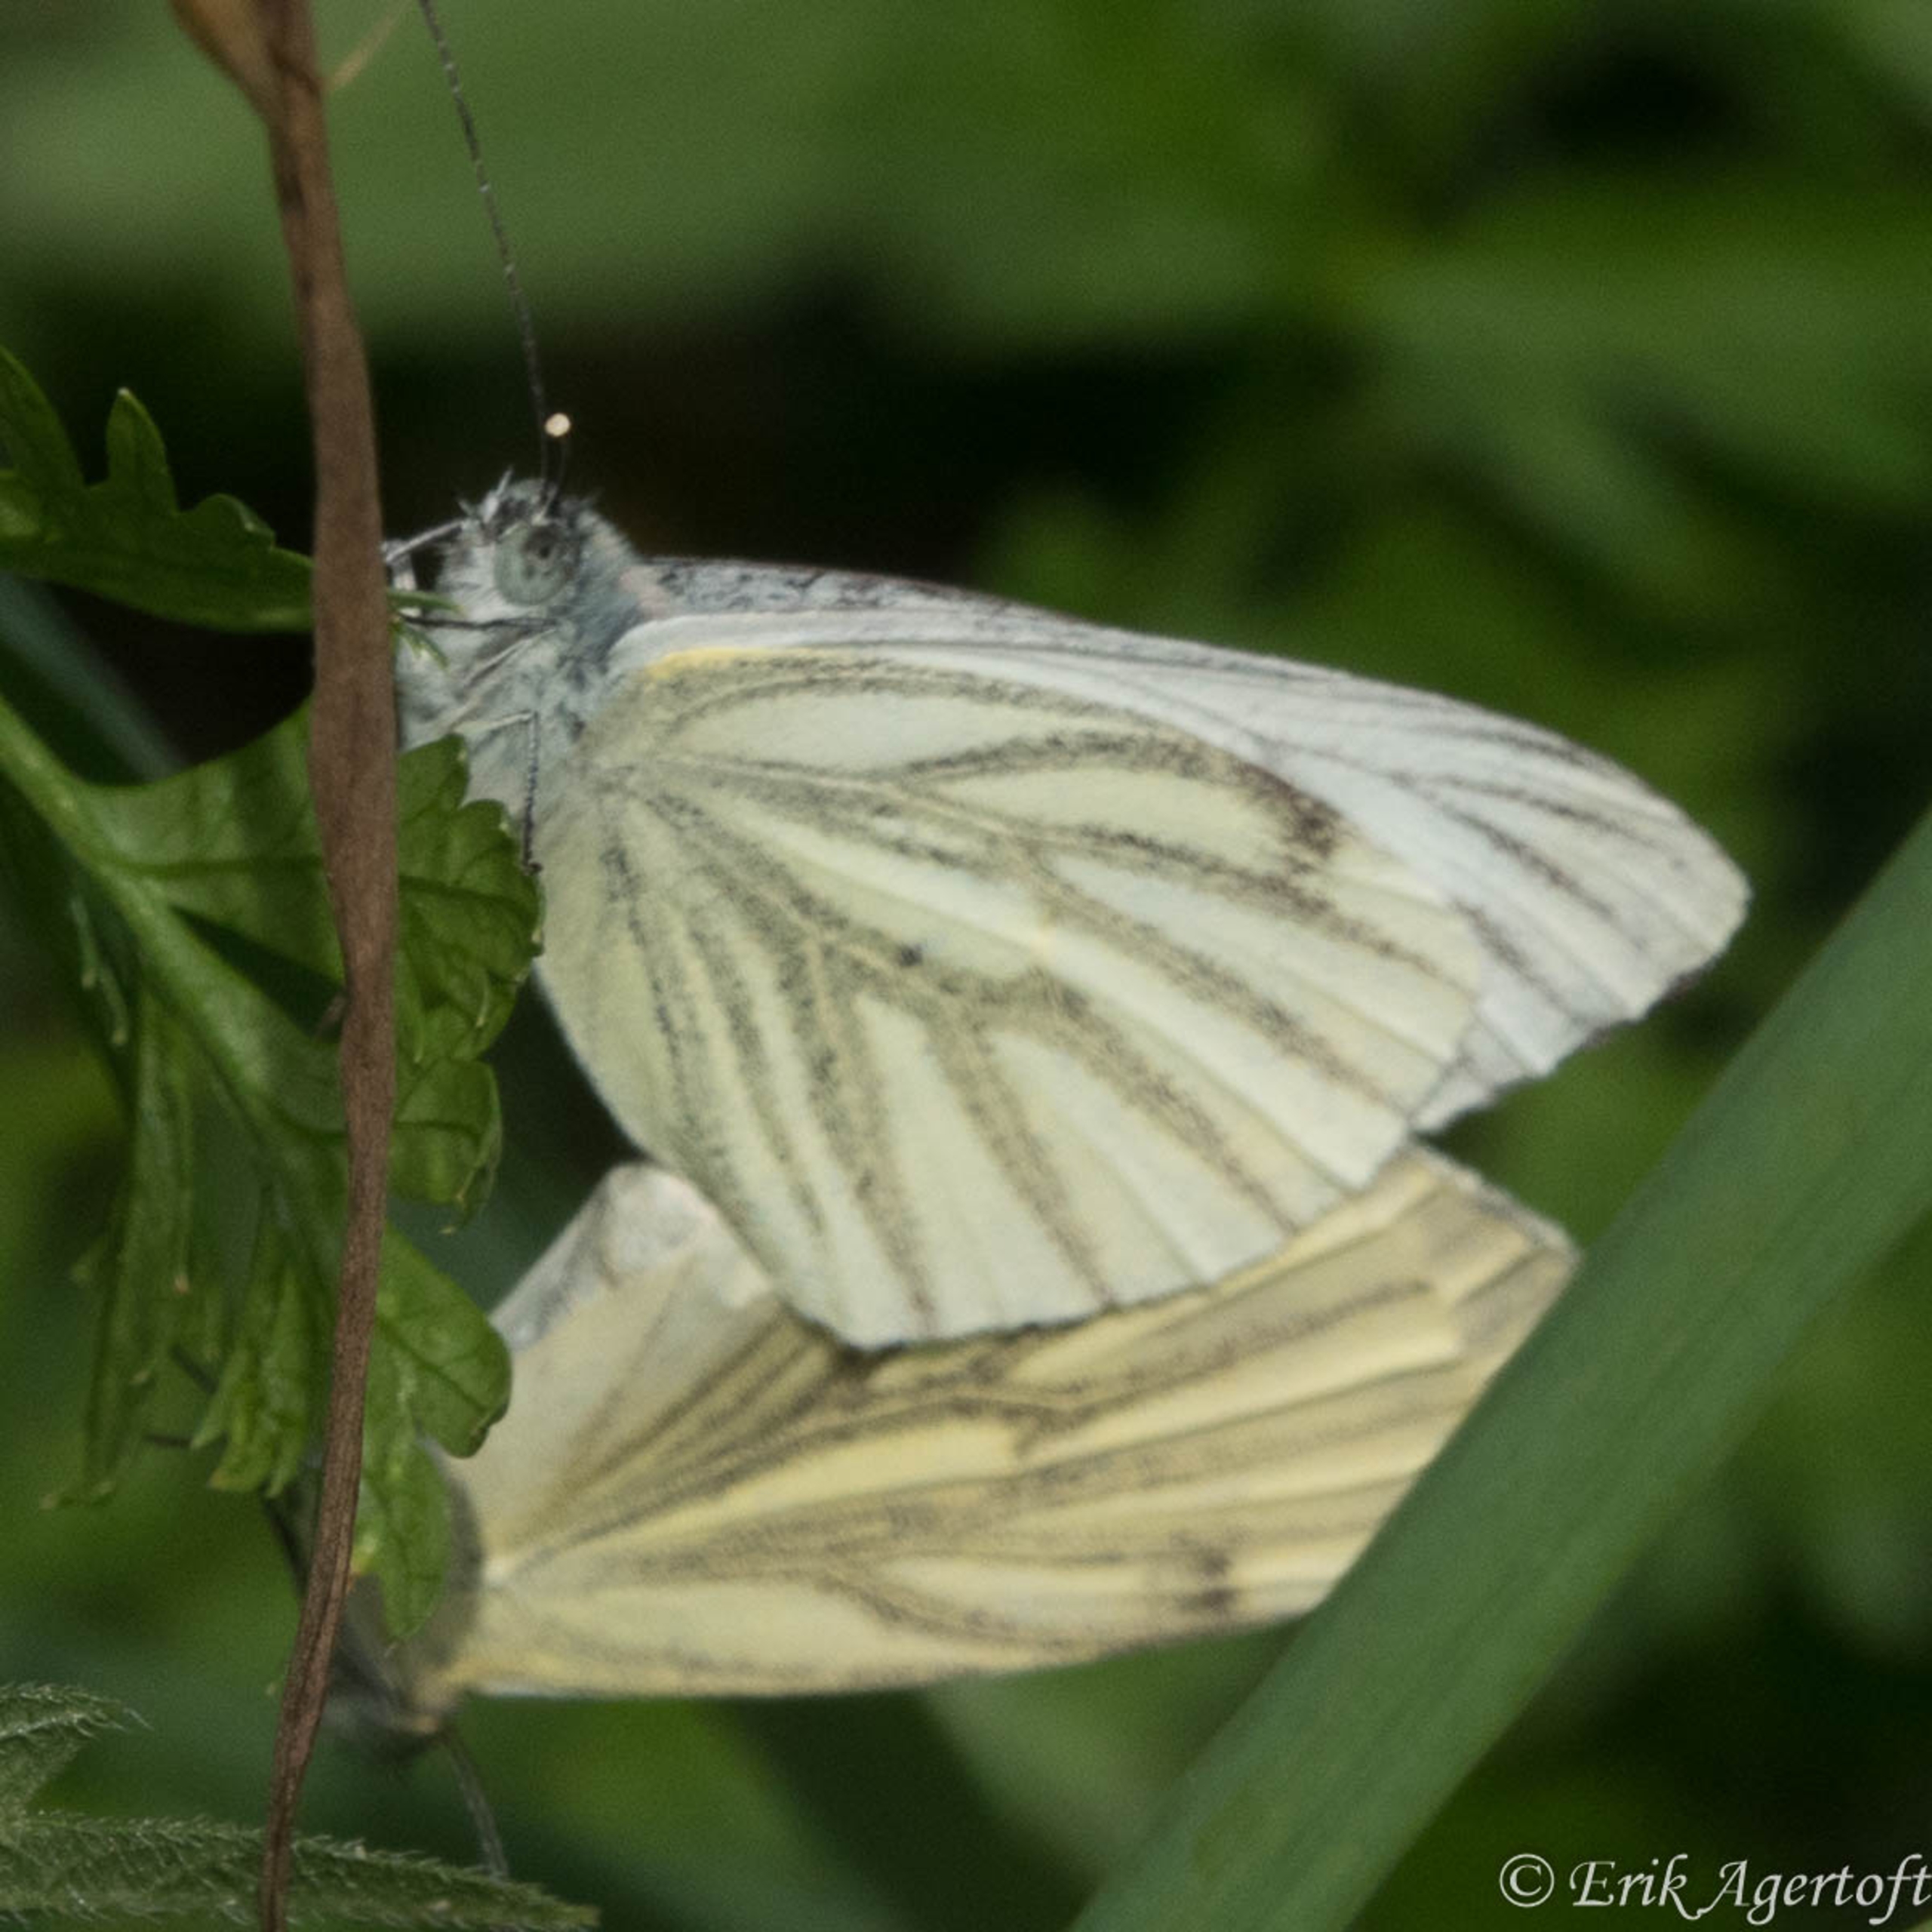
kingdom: Animalia
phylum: Arthropoda
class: Insecta
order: Lepidoptera
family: Pieridae
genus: Pieris
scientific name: Pieris napi
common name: Grønåret kålsommerfugl
